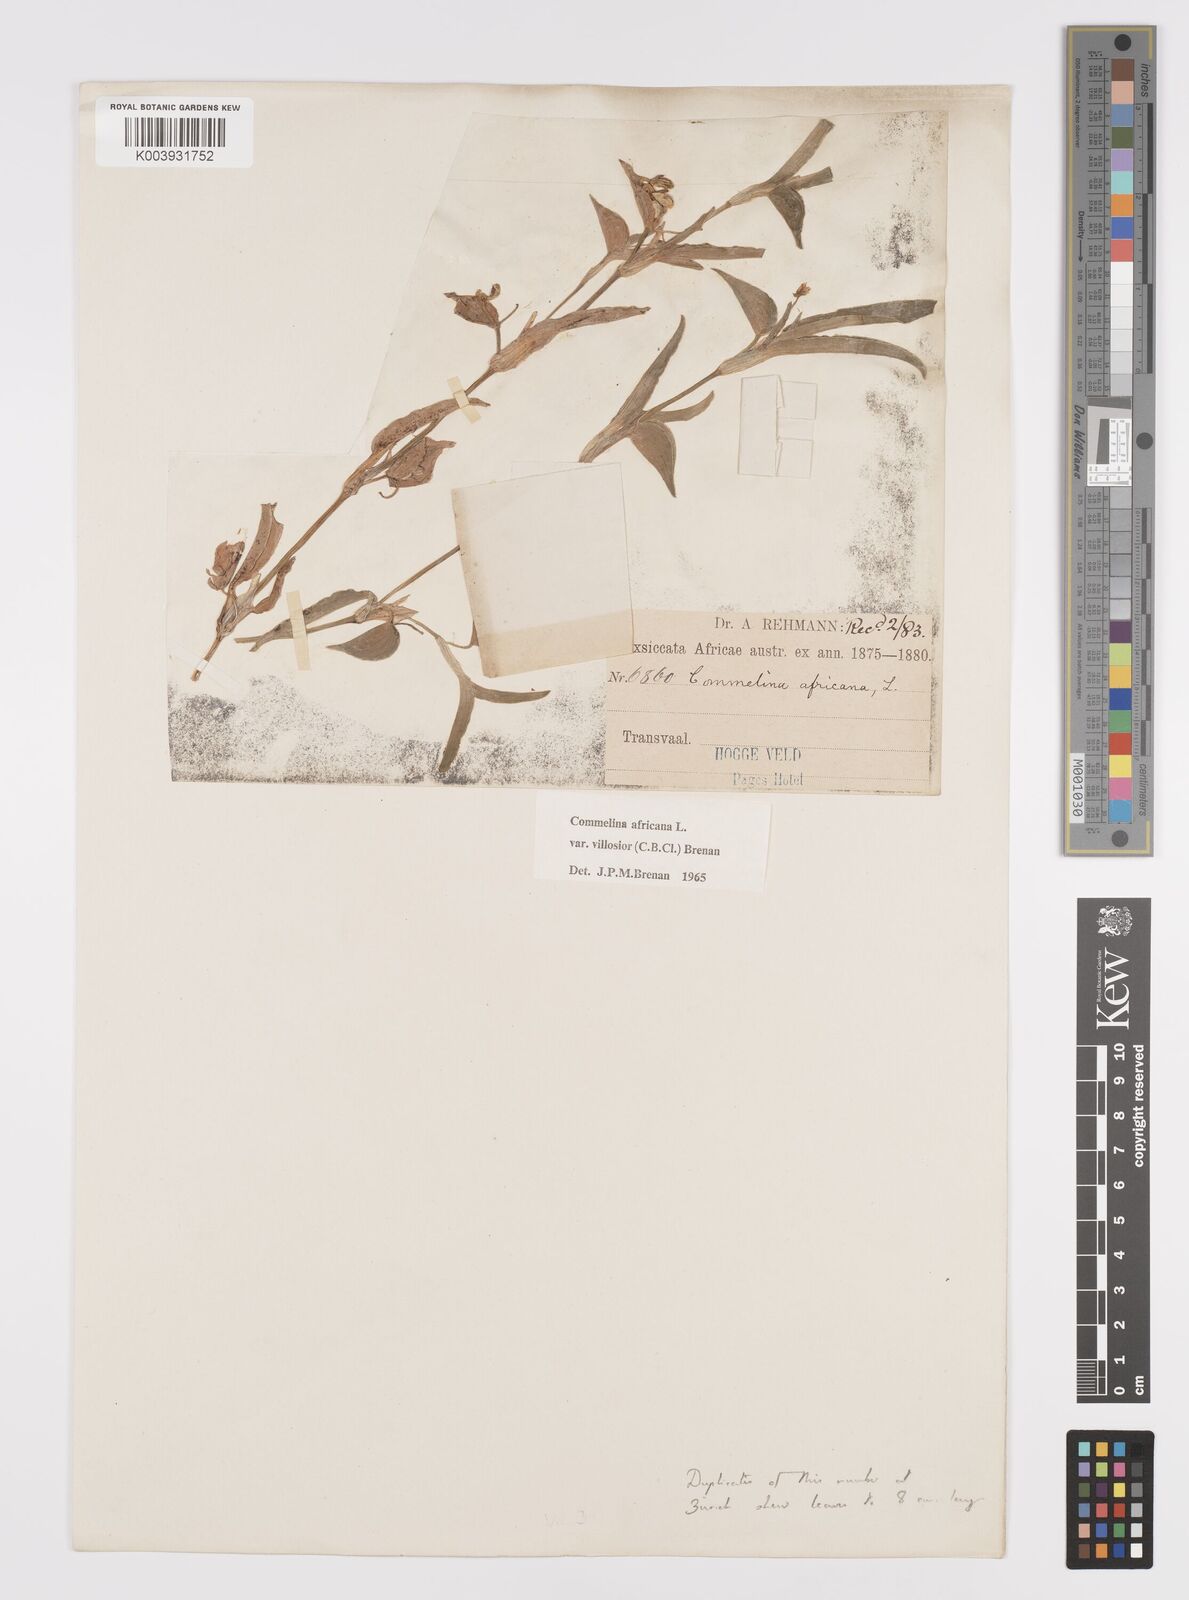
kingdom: Plantae
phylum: Tracheophyta
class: Liliopsida
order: Commelinales
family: Commelinaceae
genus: Commelina
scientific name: Commelina africana
